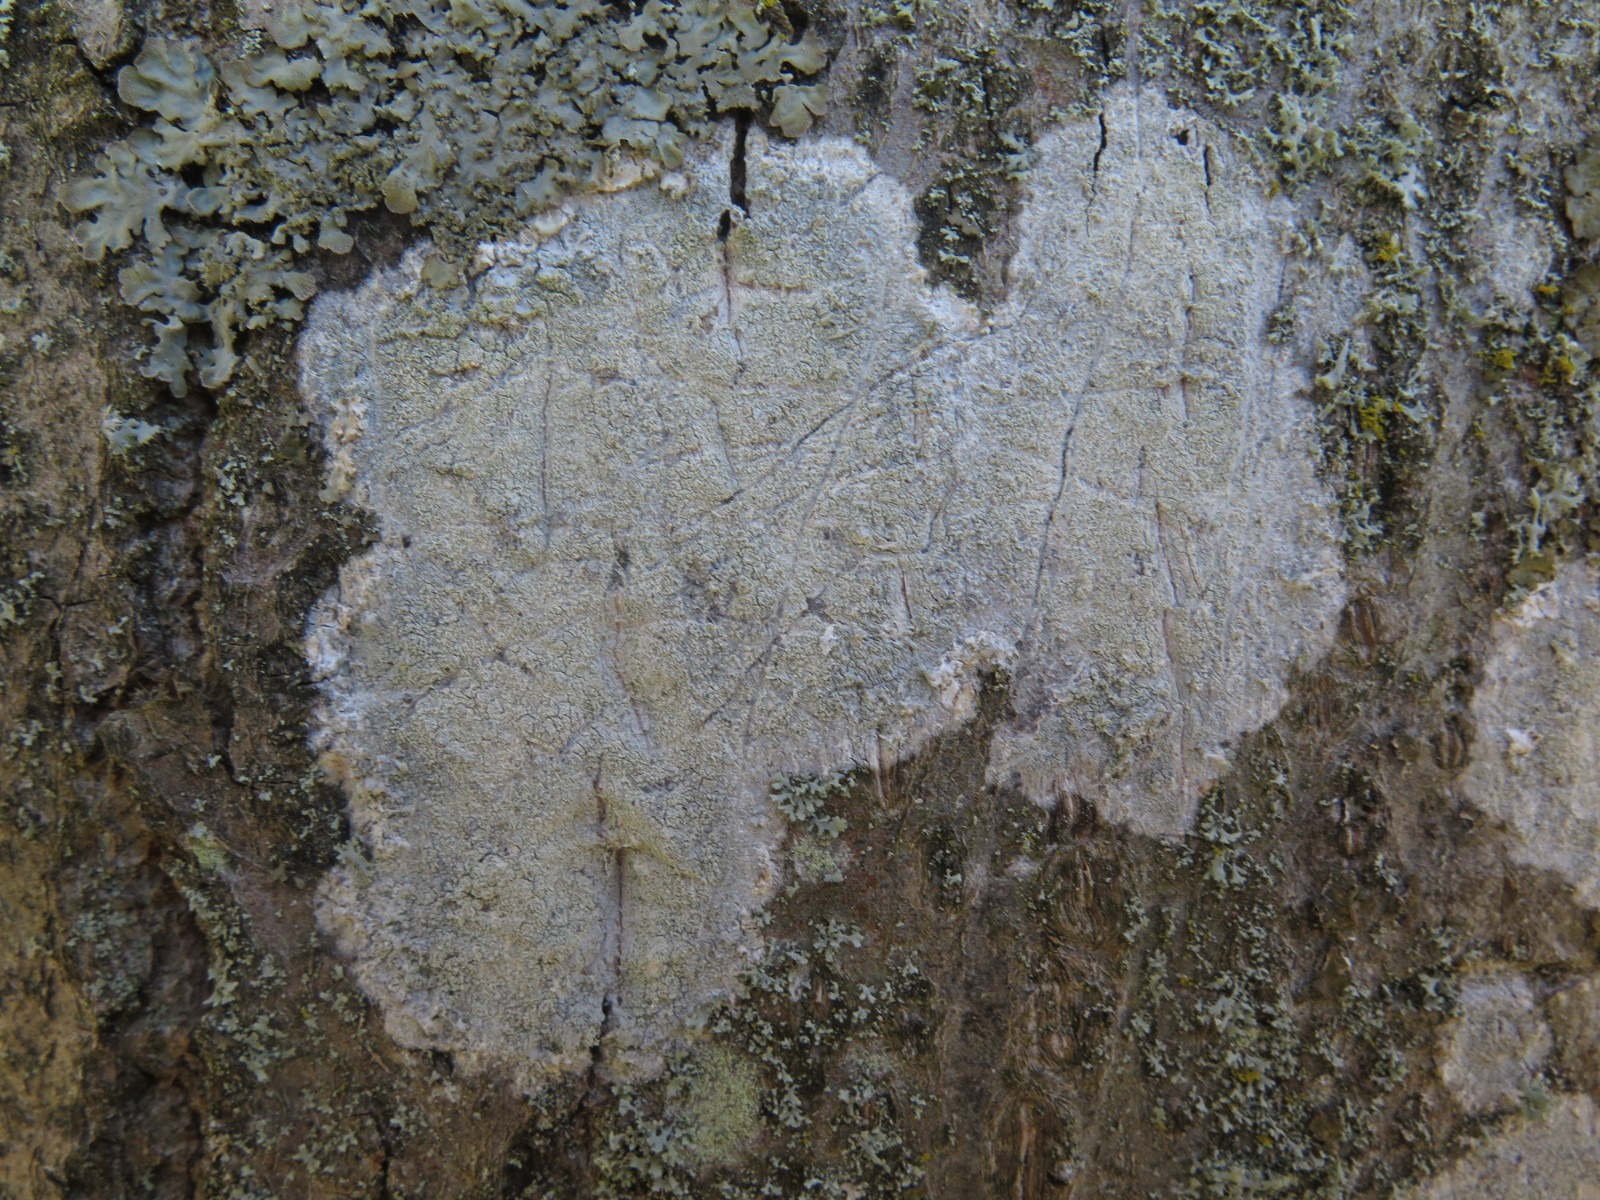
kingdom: Fungi
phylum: Ascomycota
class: Lecanoromycetes
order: Ostropales
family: Phlyctidaceae
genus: Phlyctis
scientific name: Phlyctis argena
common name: almindelig sølvlav
